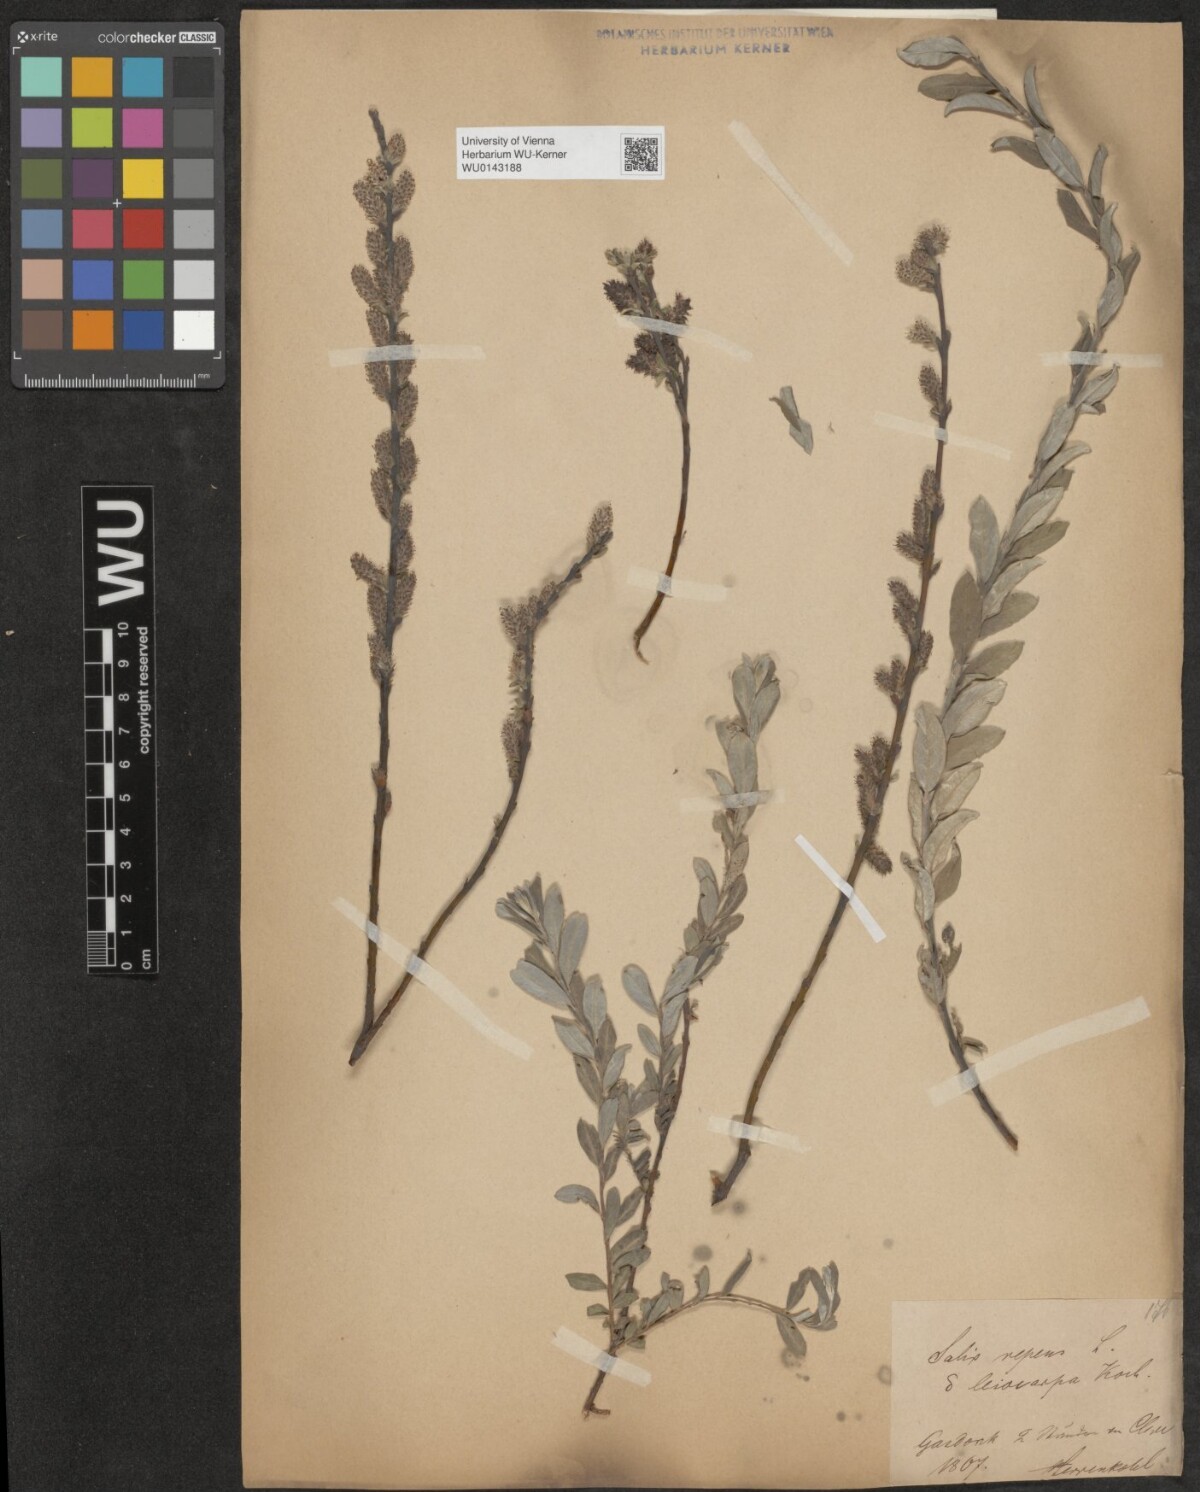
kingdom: Plantae
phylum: Tracheophyta
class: Magnoliopsida
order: Malpighiales
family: Salicaceae
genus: Salix
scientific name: Salix repens
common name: Creeping willow
